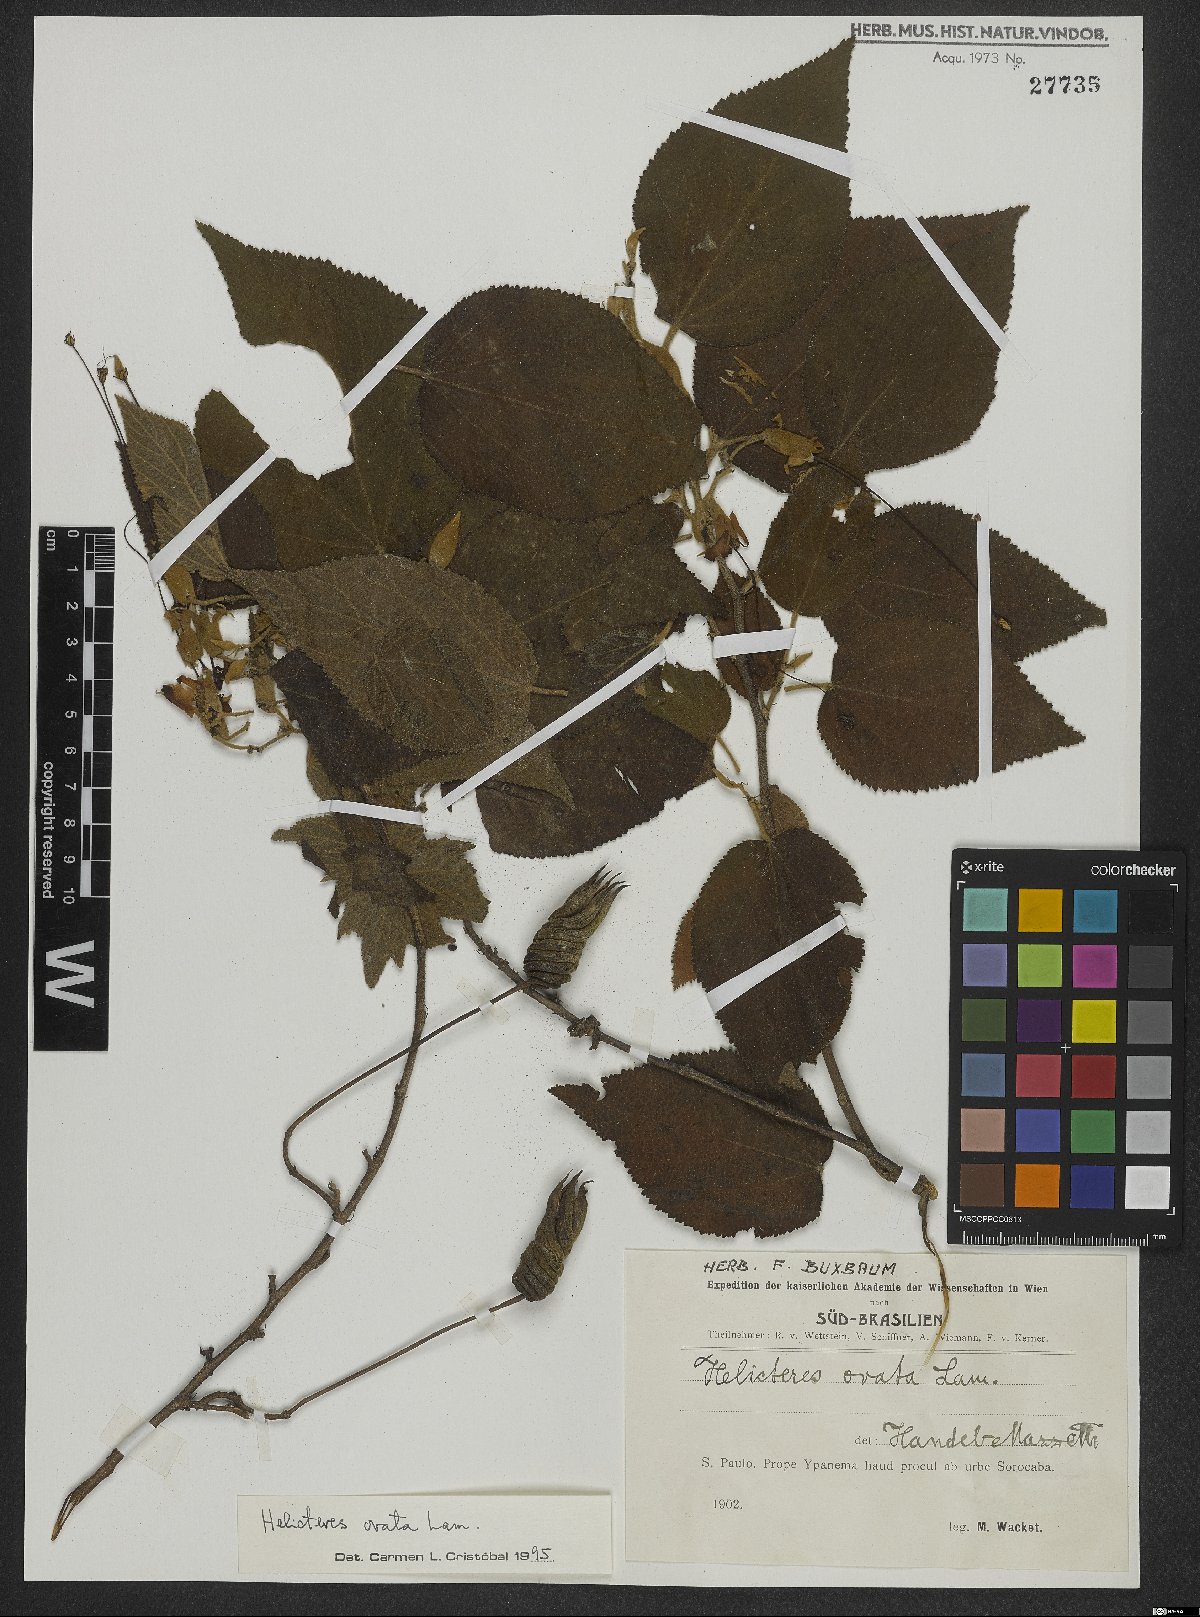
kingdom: Plantae
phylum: Tracheophyta
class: Magnoliopsida
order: Malvales
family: Malvaceae
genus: Helicteres
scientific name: Helicteres ovata
